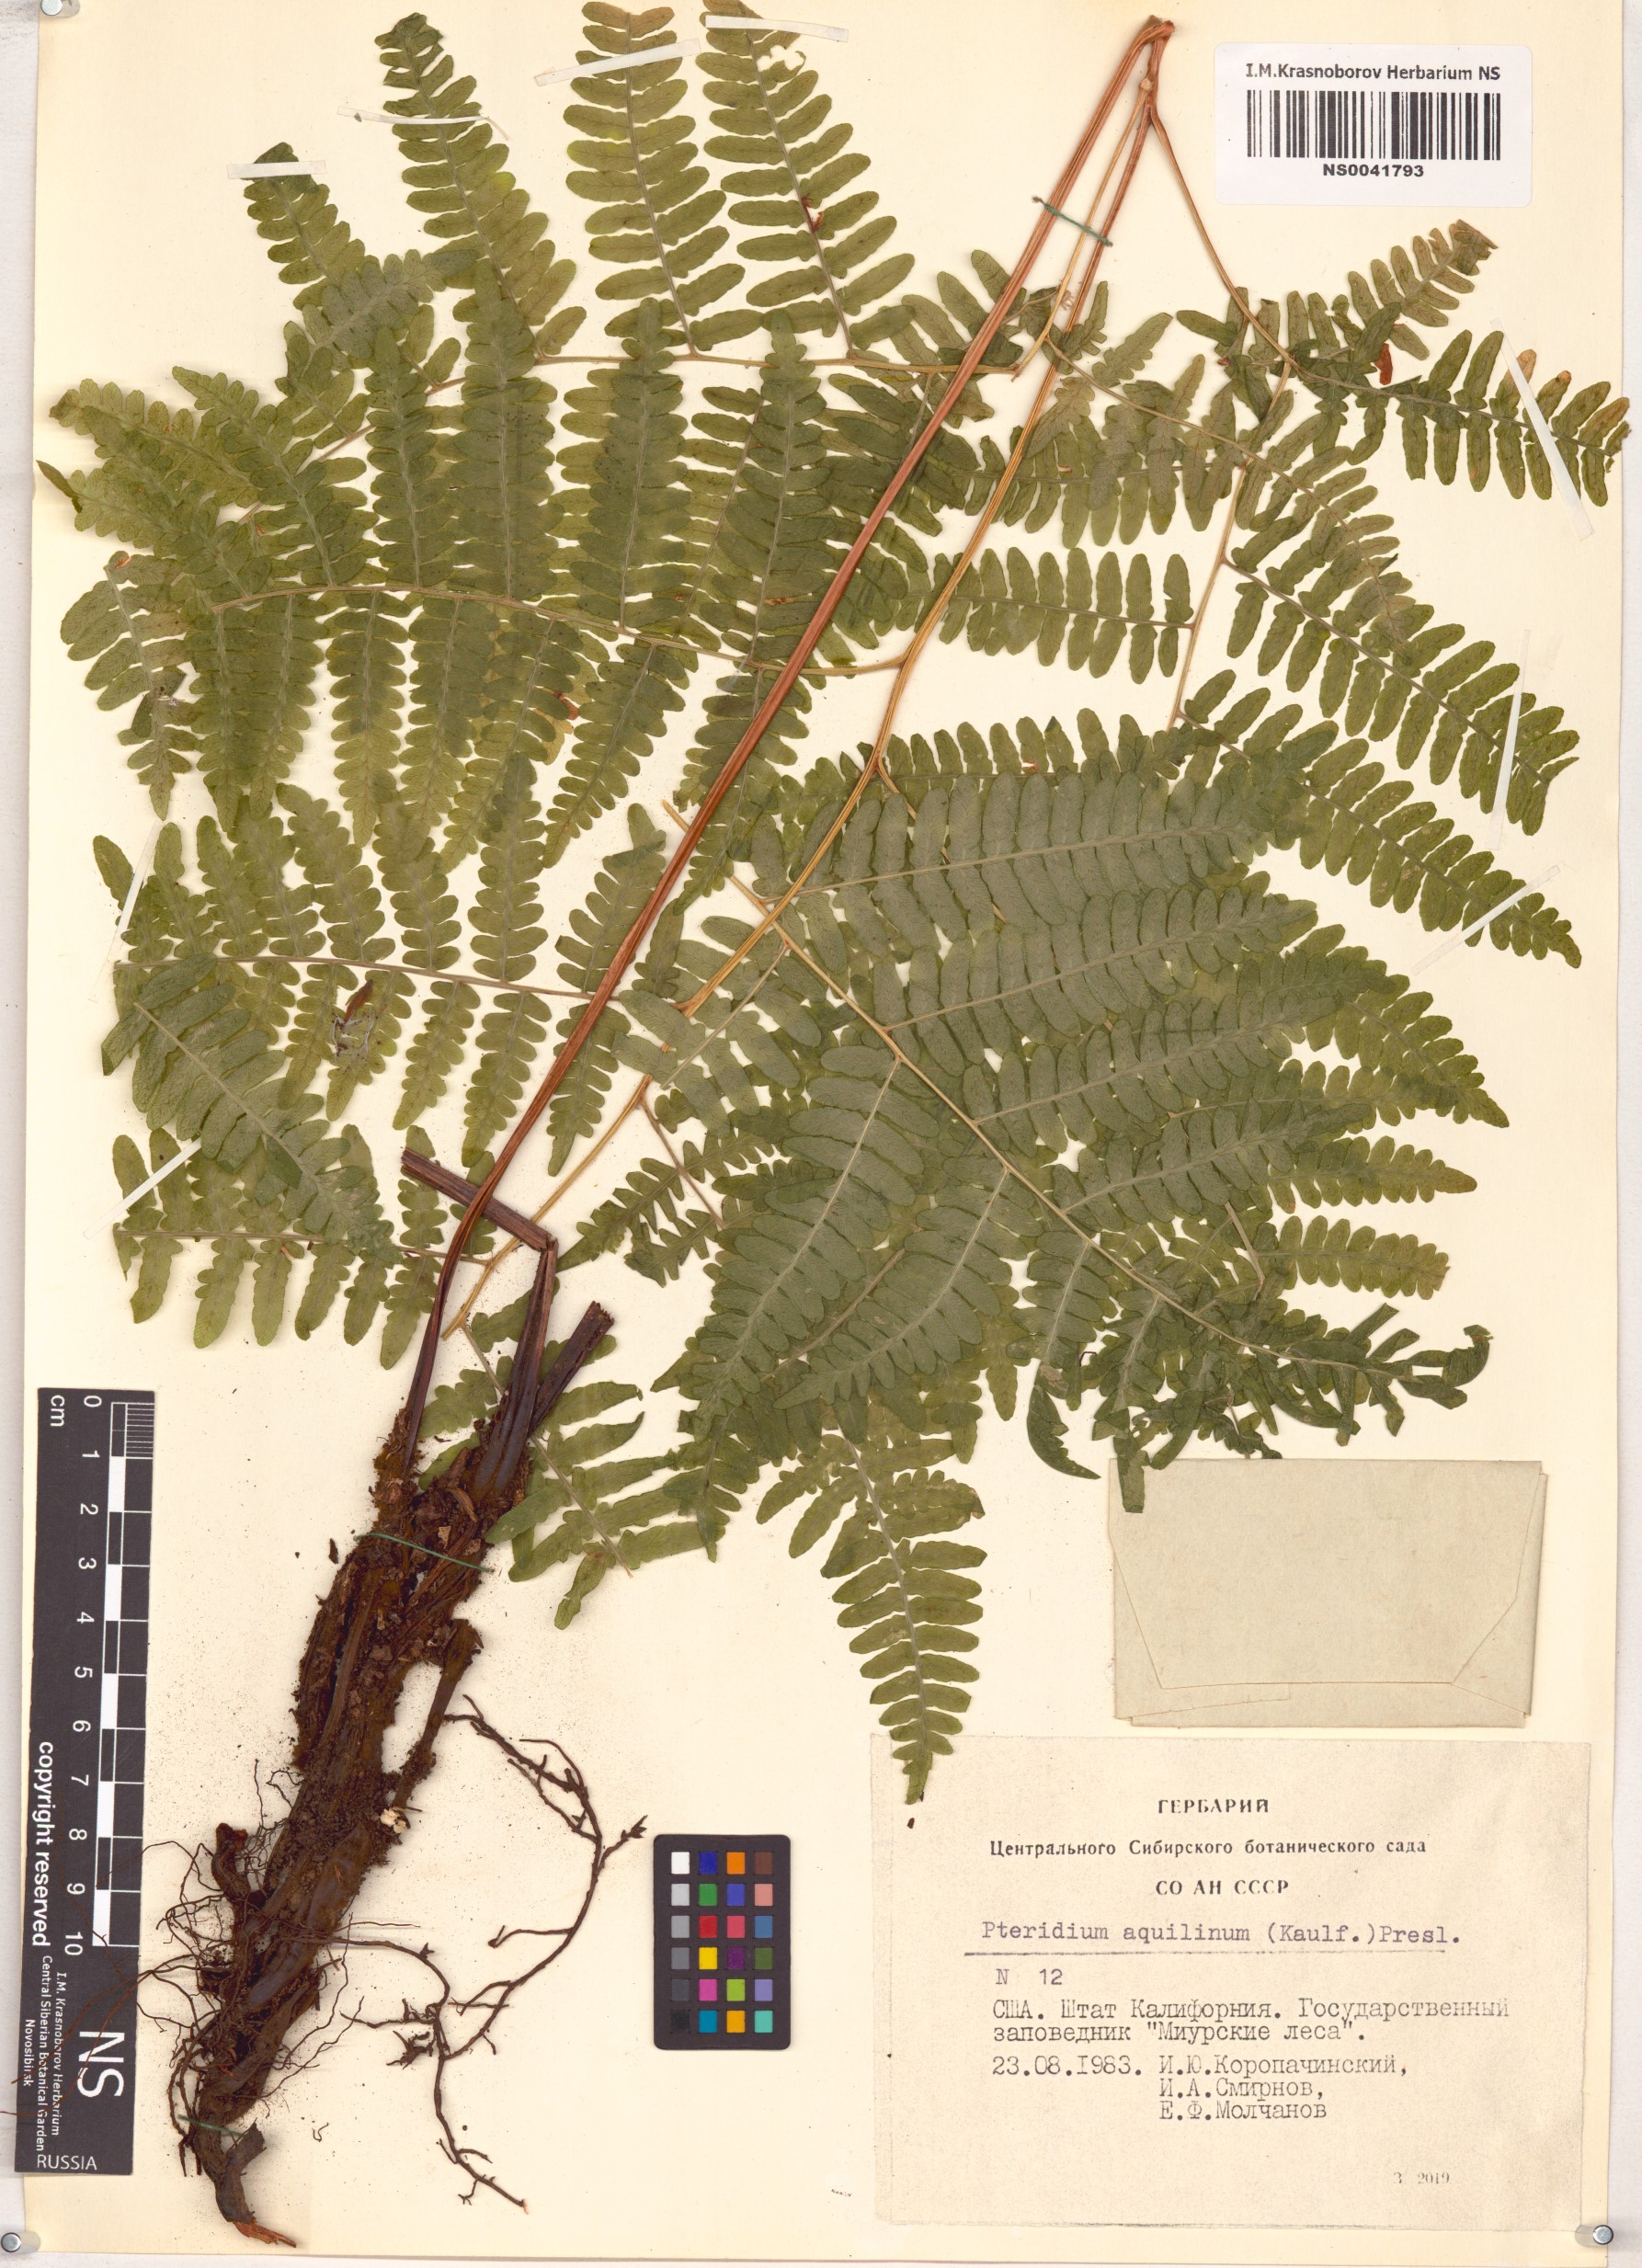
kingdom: Plantae
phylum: Tracheophyta
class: Polypodiopsida
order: Polypodiales
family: Dennstaedtiaceae
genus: Pteridium
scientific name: Pteridium aquilinum
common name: Bracken
